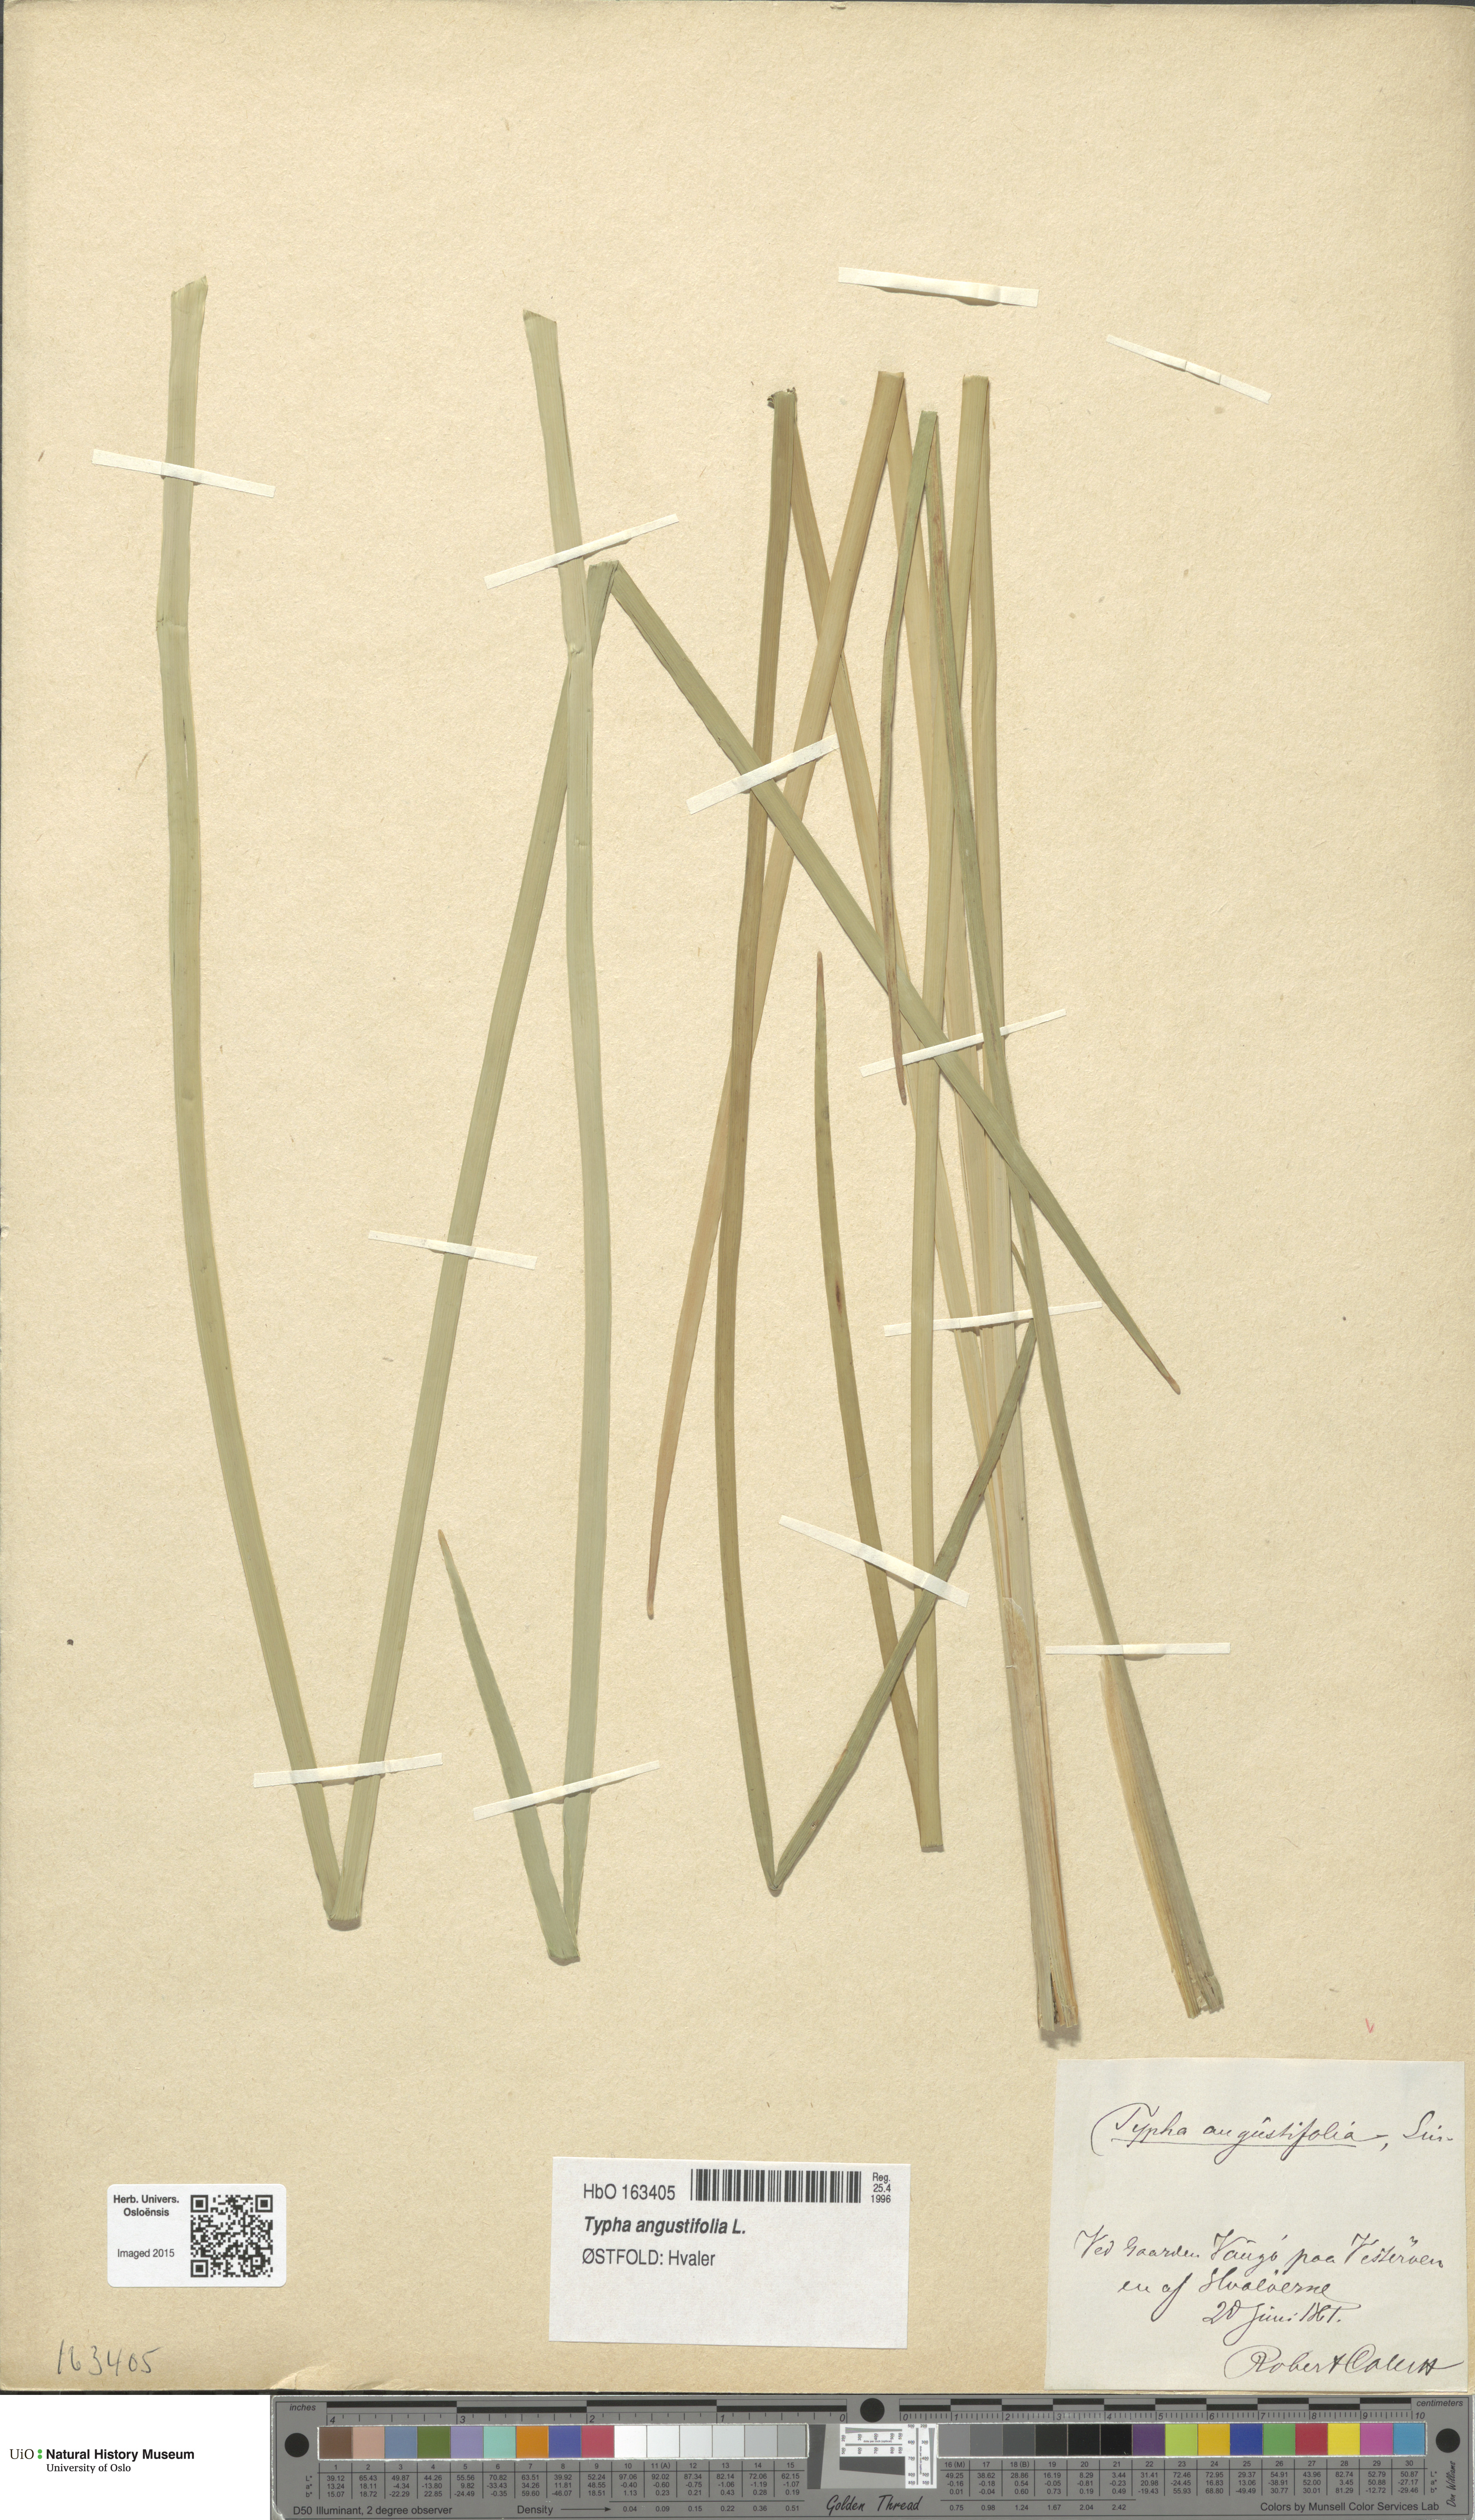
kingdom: Plantae
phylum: Tracheophyta
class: Liliopsida
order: Poales
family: Typhaceae
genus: Typha
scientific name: Typha angustifolia
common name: Lesser bulrush
